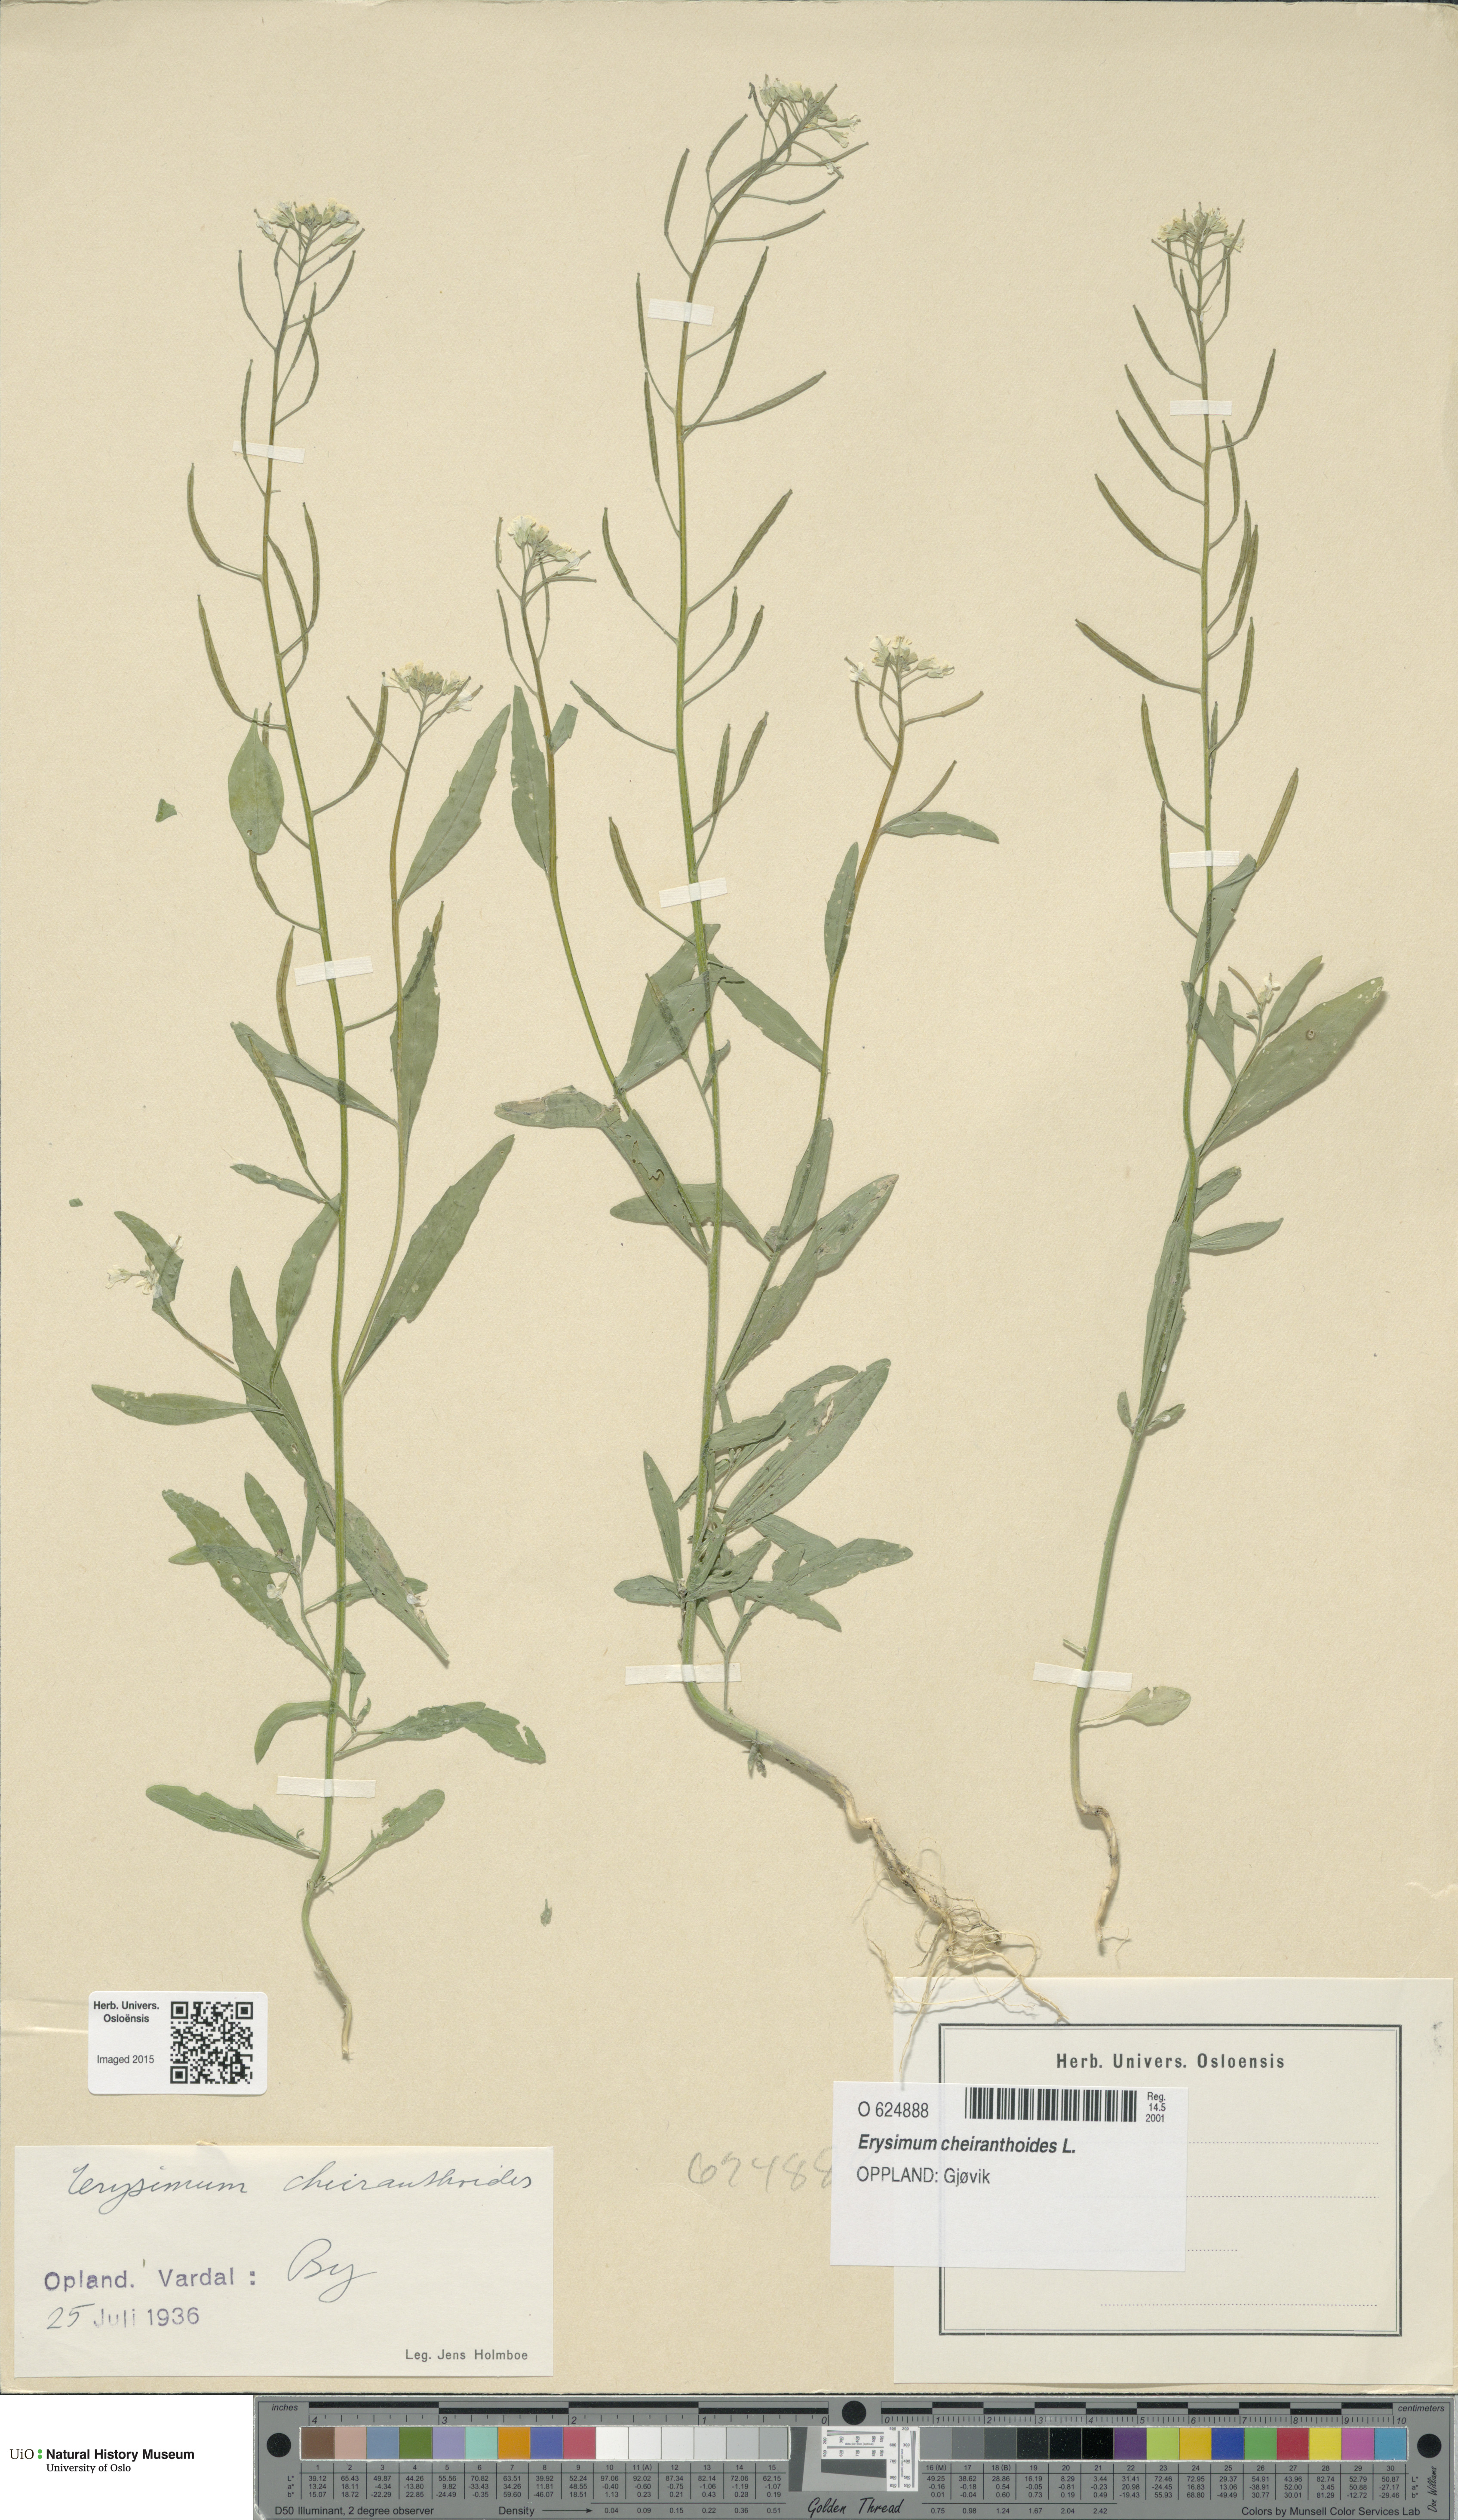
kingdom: Plantae
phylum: Tracheophyta
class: Magnoliopsida
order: Brassicales
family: Brassicaceae
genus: Erysimum
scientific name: Erysimum cheiranthoides
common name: Treacle mustard
